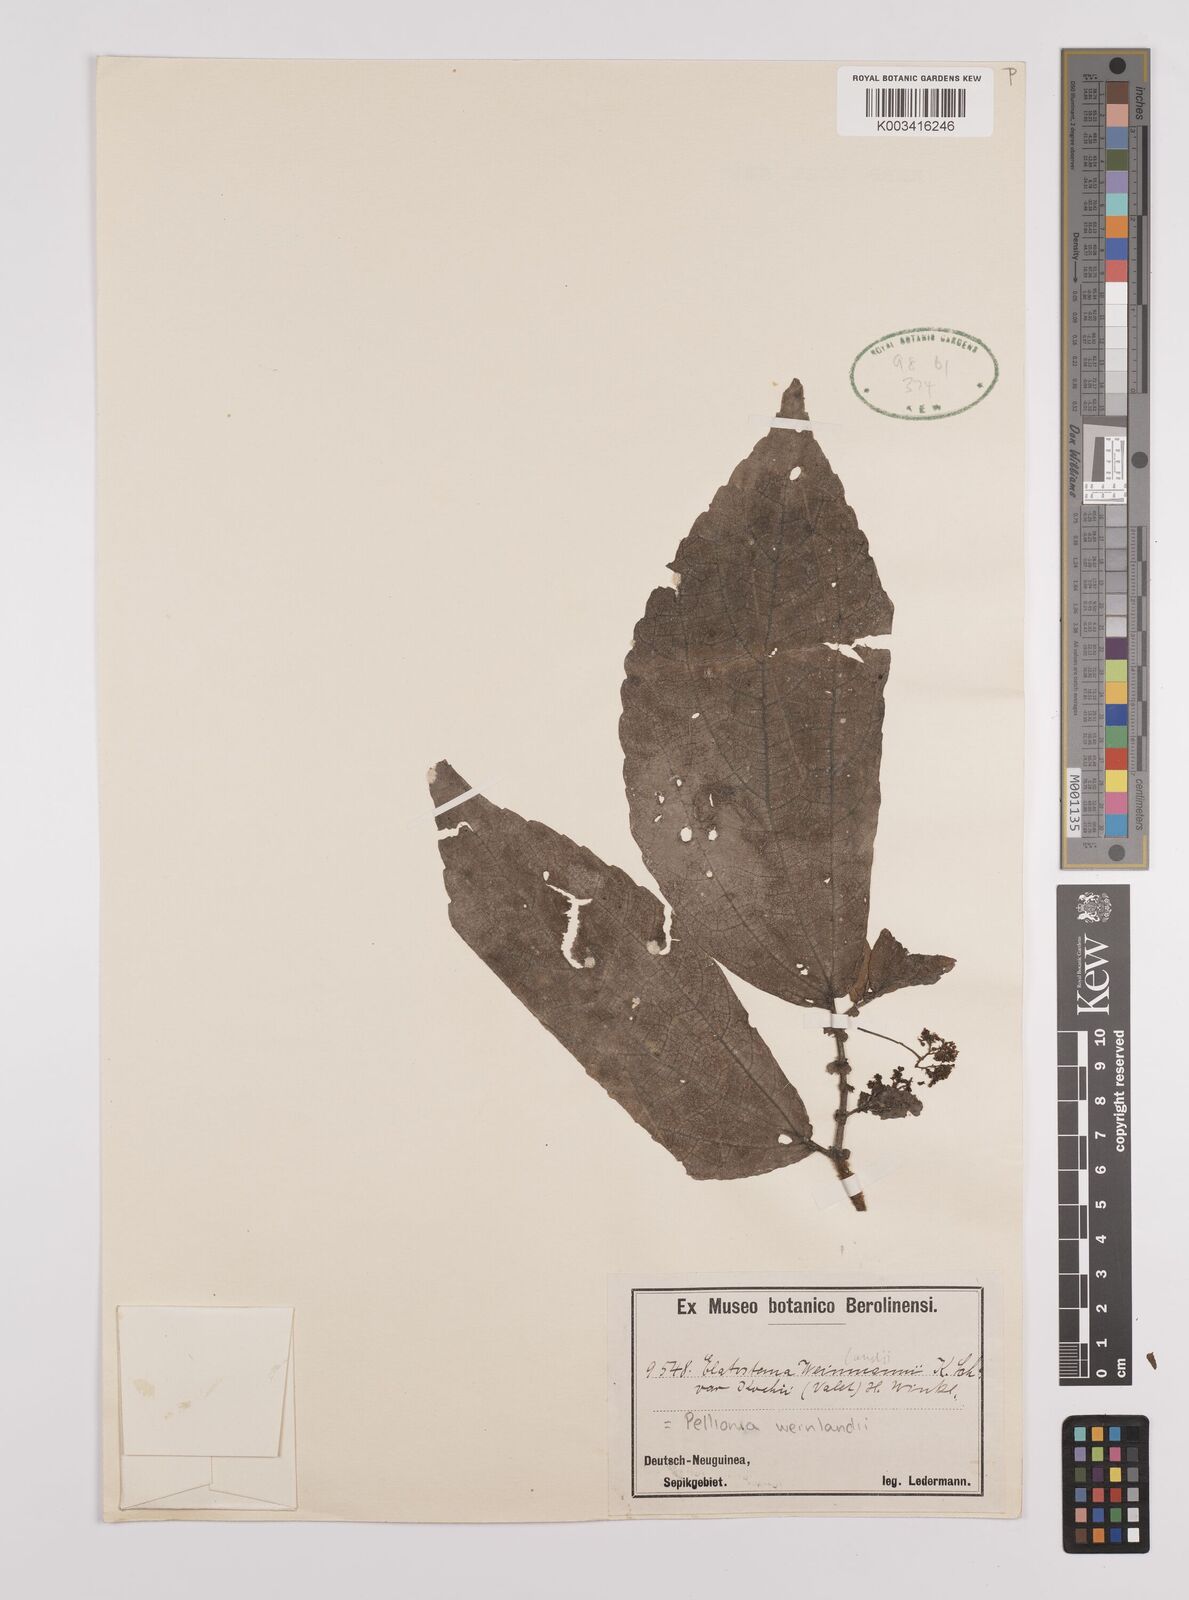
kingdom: Plantae
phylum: Tracheophyta
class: Magnoliopsida
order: Rosales
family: Urticaceae
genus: Elatostema
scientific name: Elatostema weinlandii
